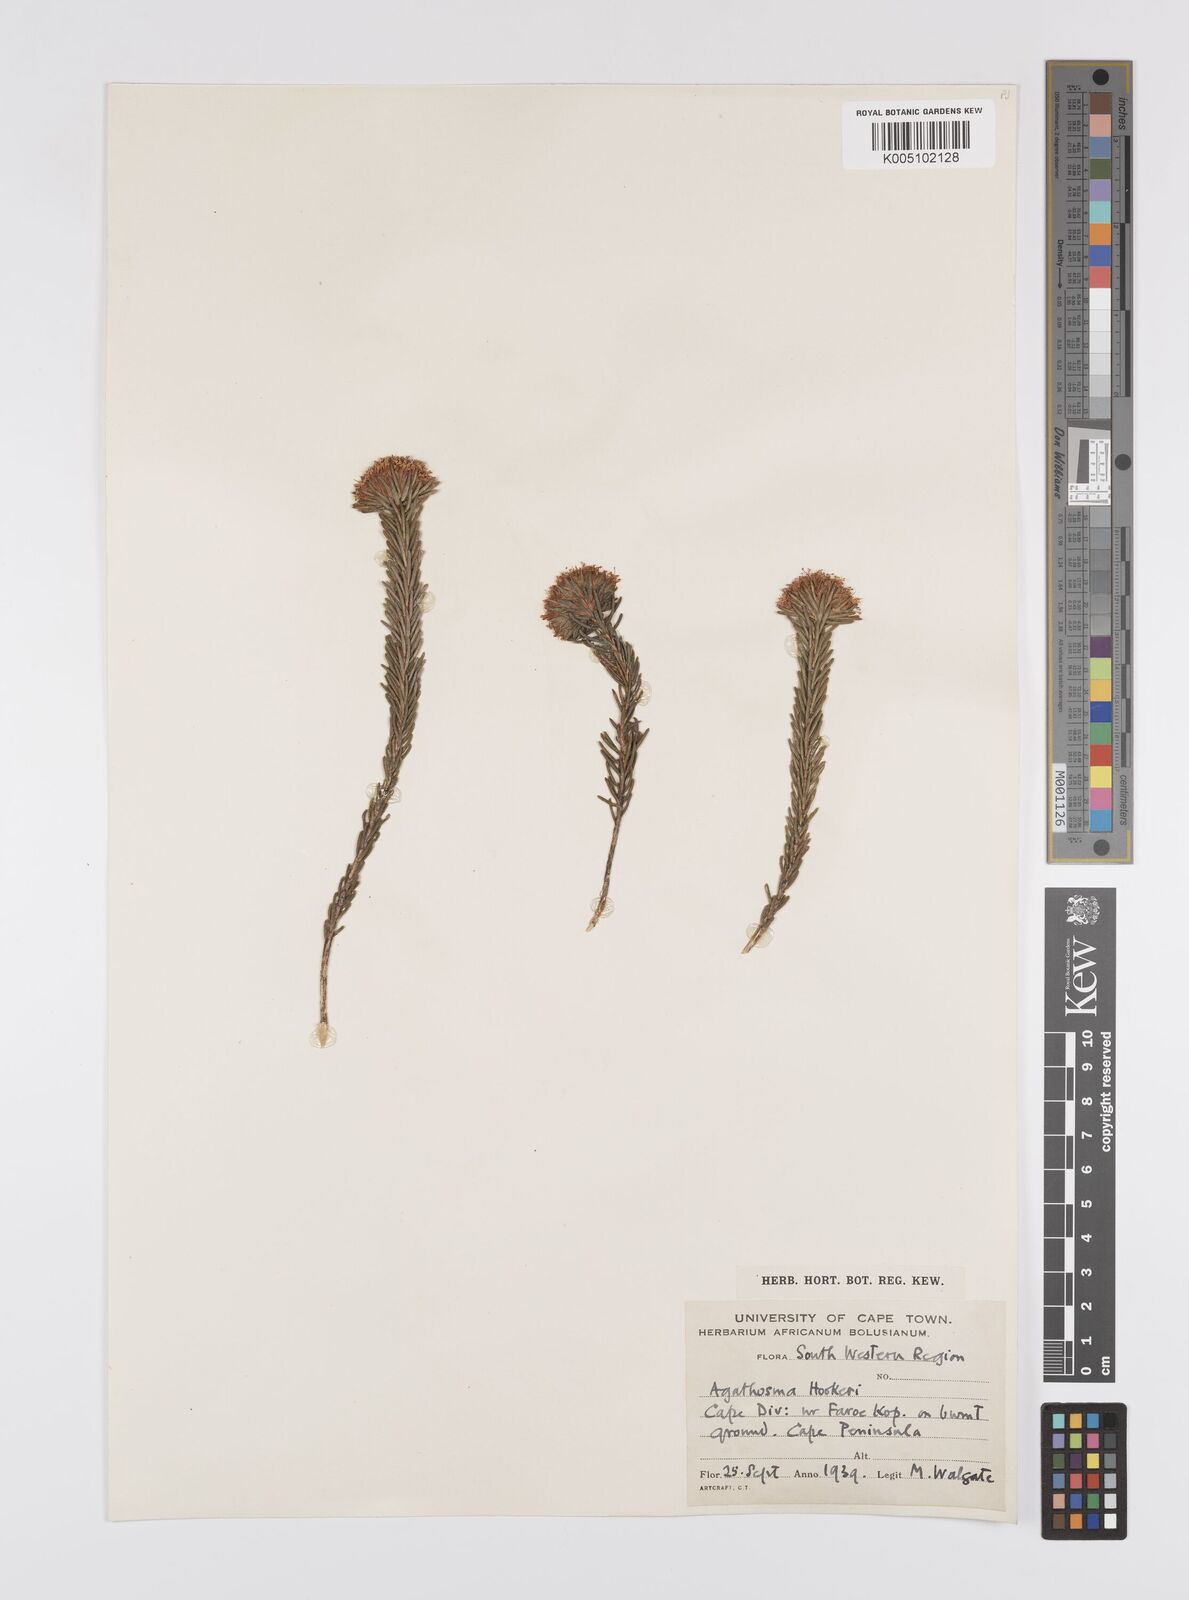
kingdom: Plantae
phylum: Tracheophyta
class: Magnoliopsida
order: Sapindales
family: Rutaceae
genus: Agathosma
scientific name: Agathosma hookeri
